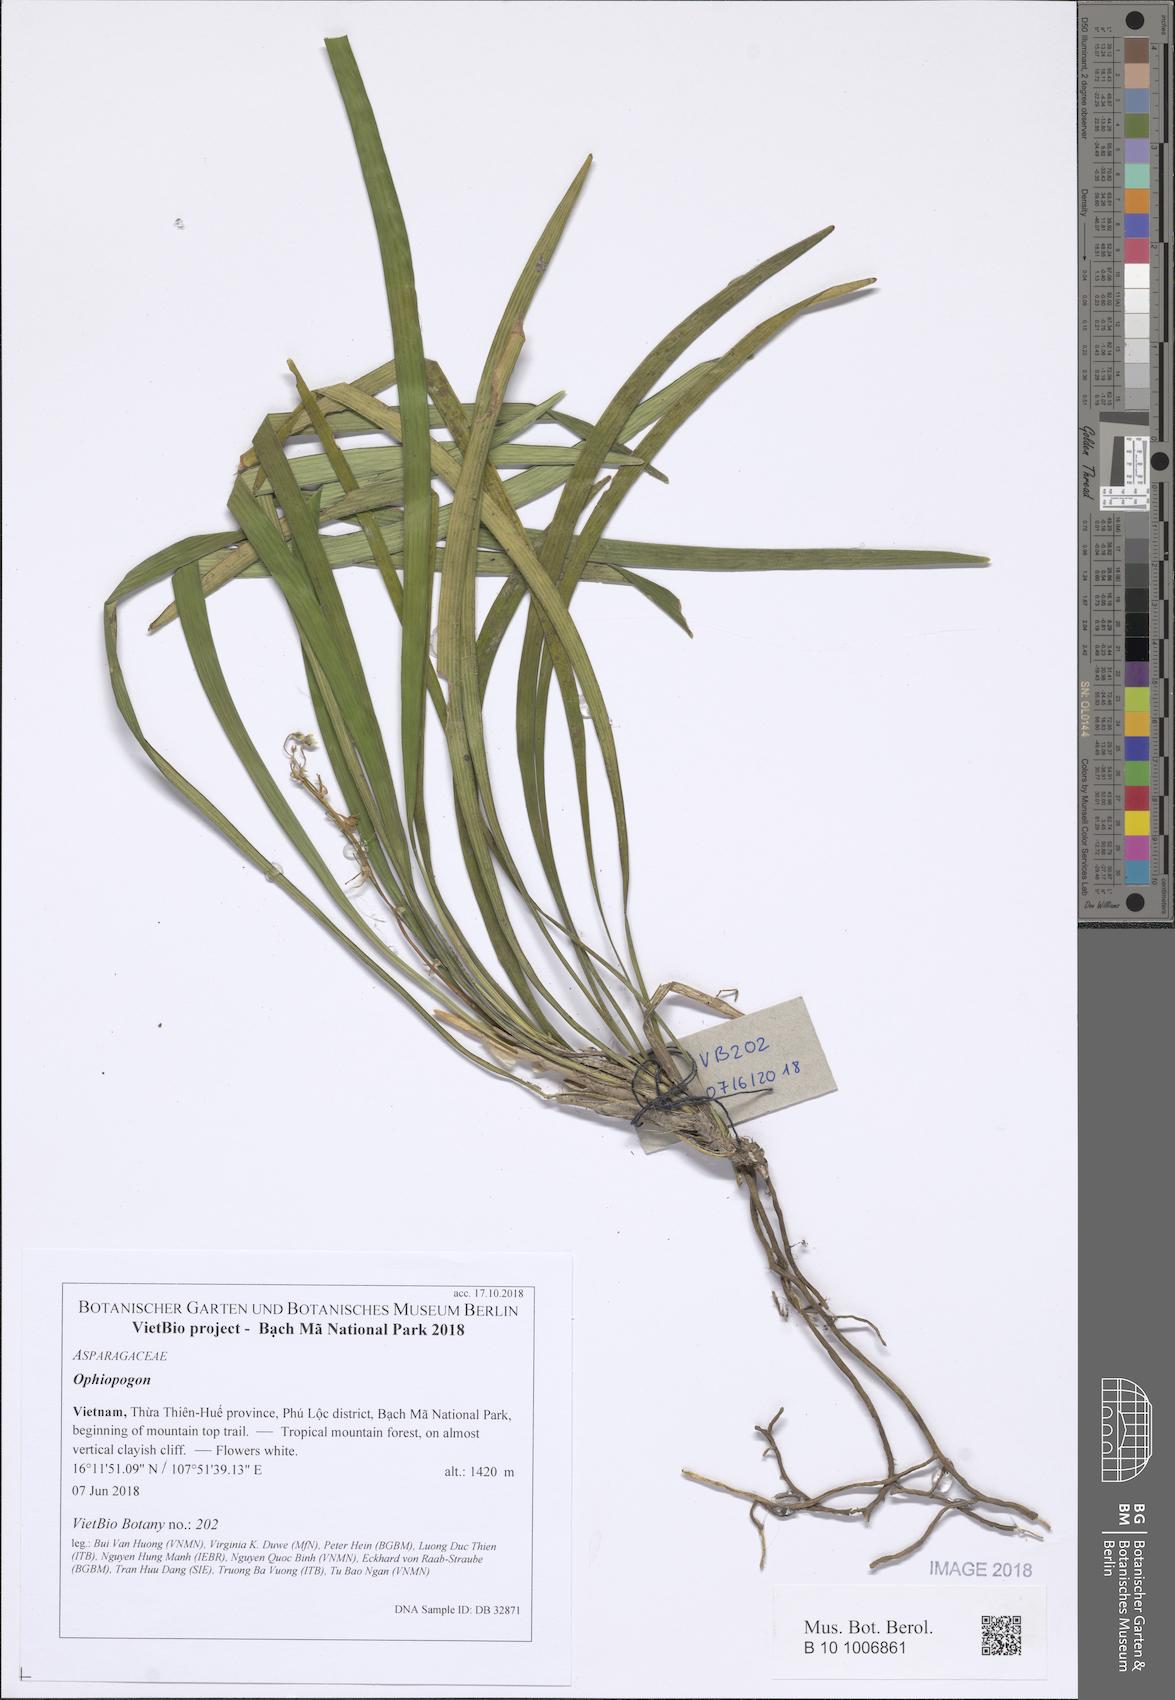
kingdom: Plantae
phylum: Tracheophyta
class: Liliopsida
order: Asparagales
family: Asparagaceae
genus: Ophiopogon
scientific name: Ophiopogon
